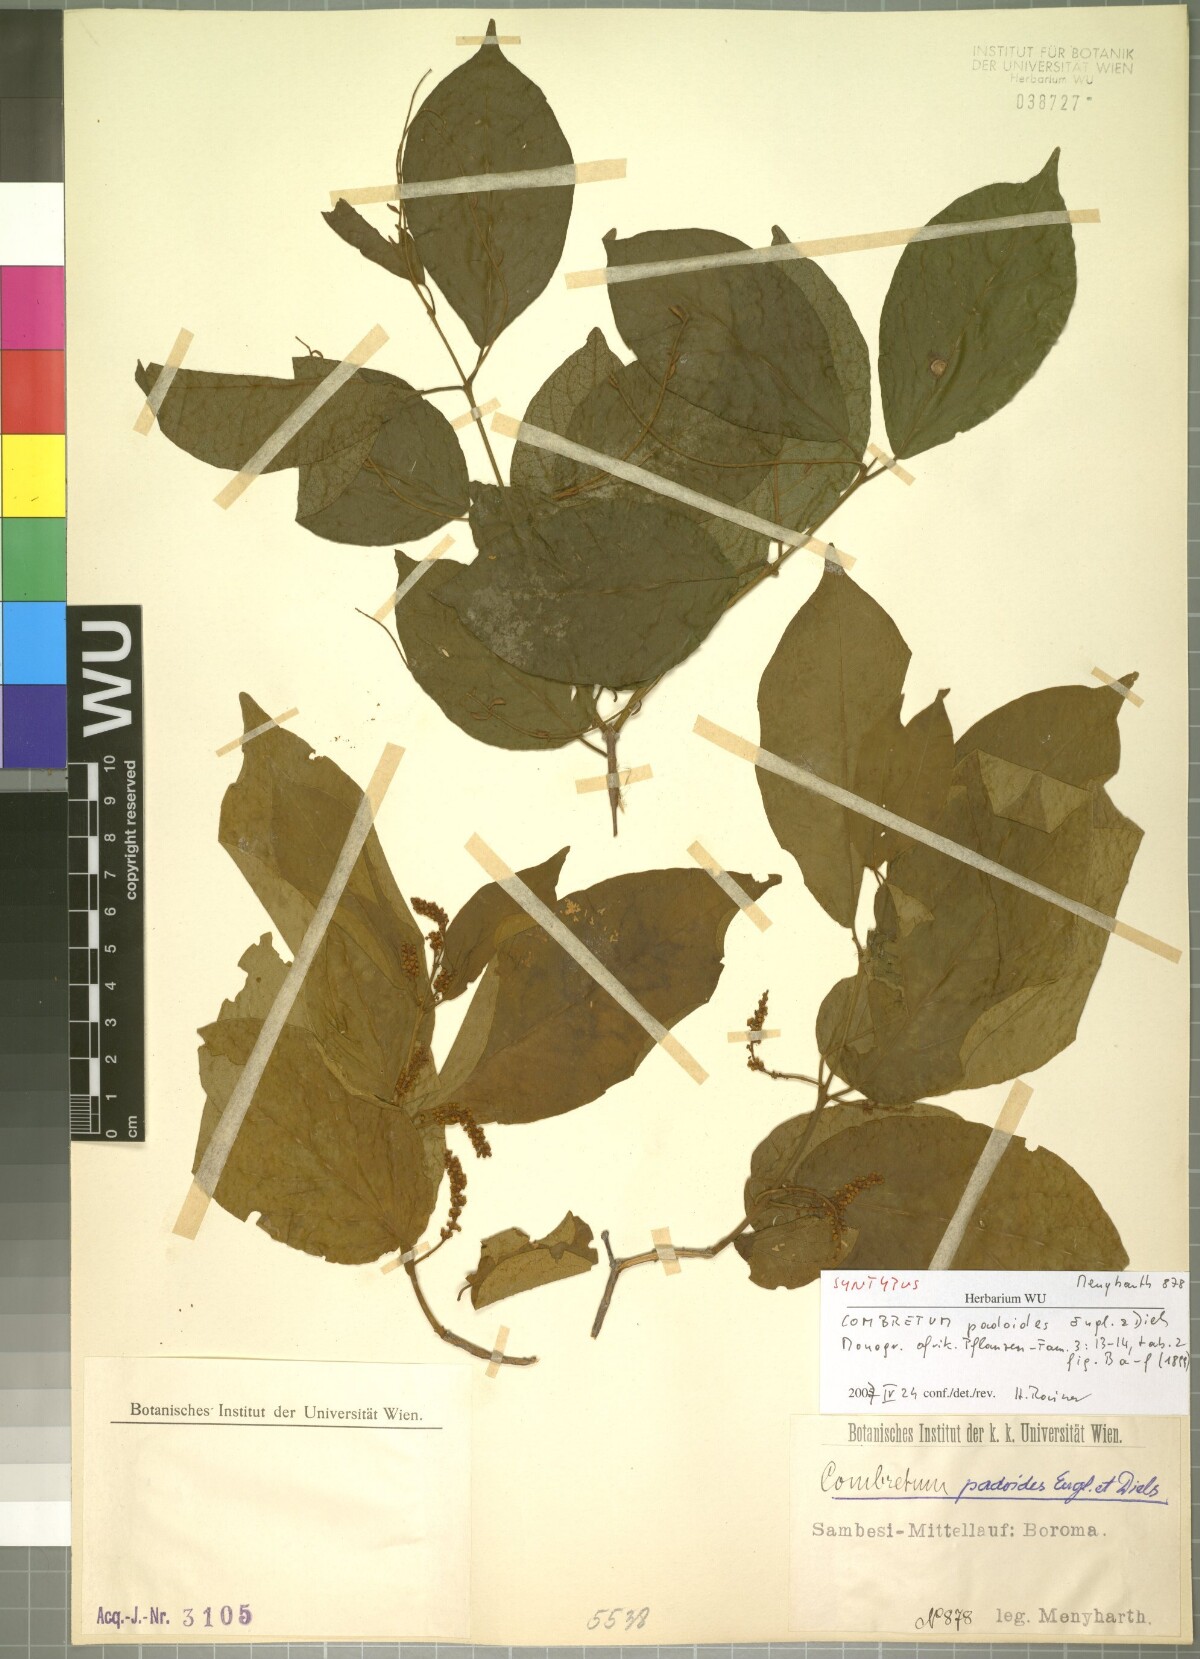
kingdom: Plantae
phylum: Tracheophyta
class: Magnoliopsida
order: Myrtales
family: Combretaceae
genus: Combretum
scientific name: Combretum padoides
